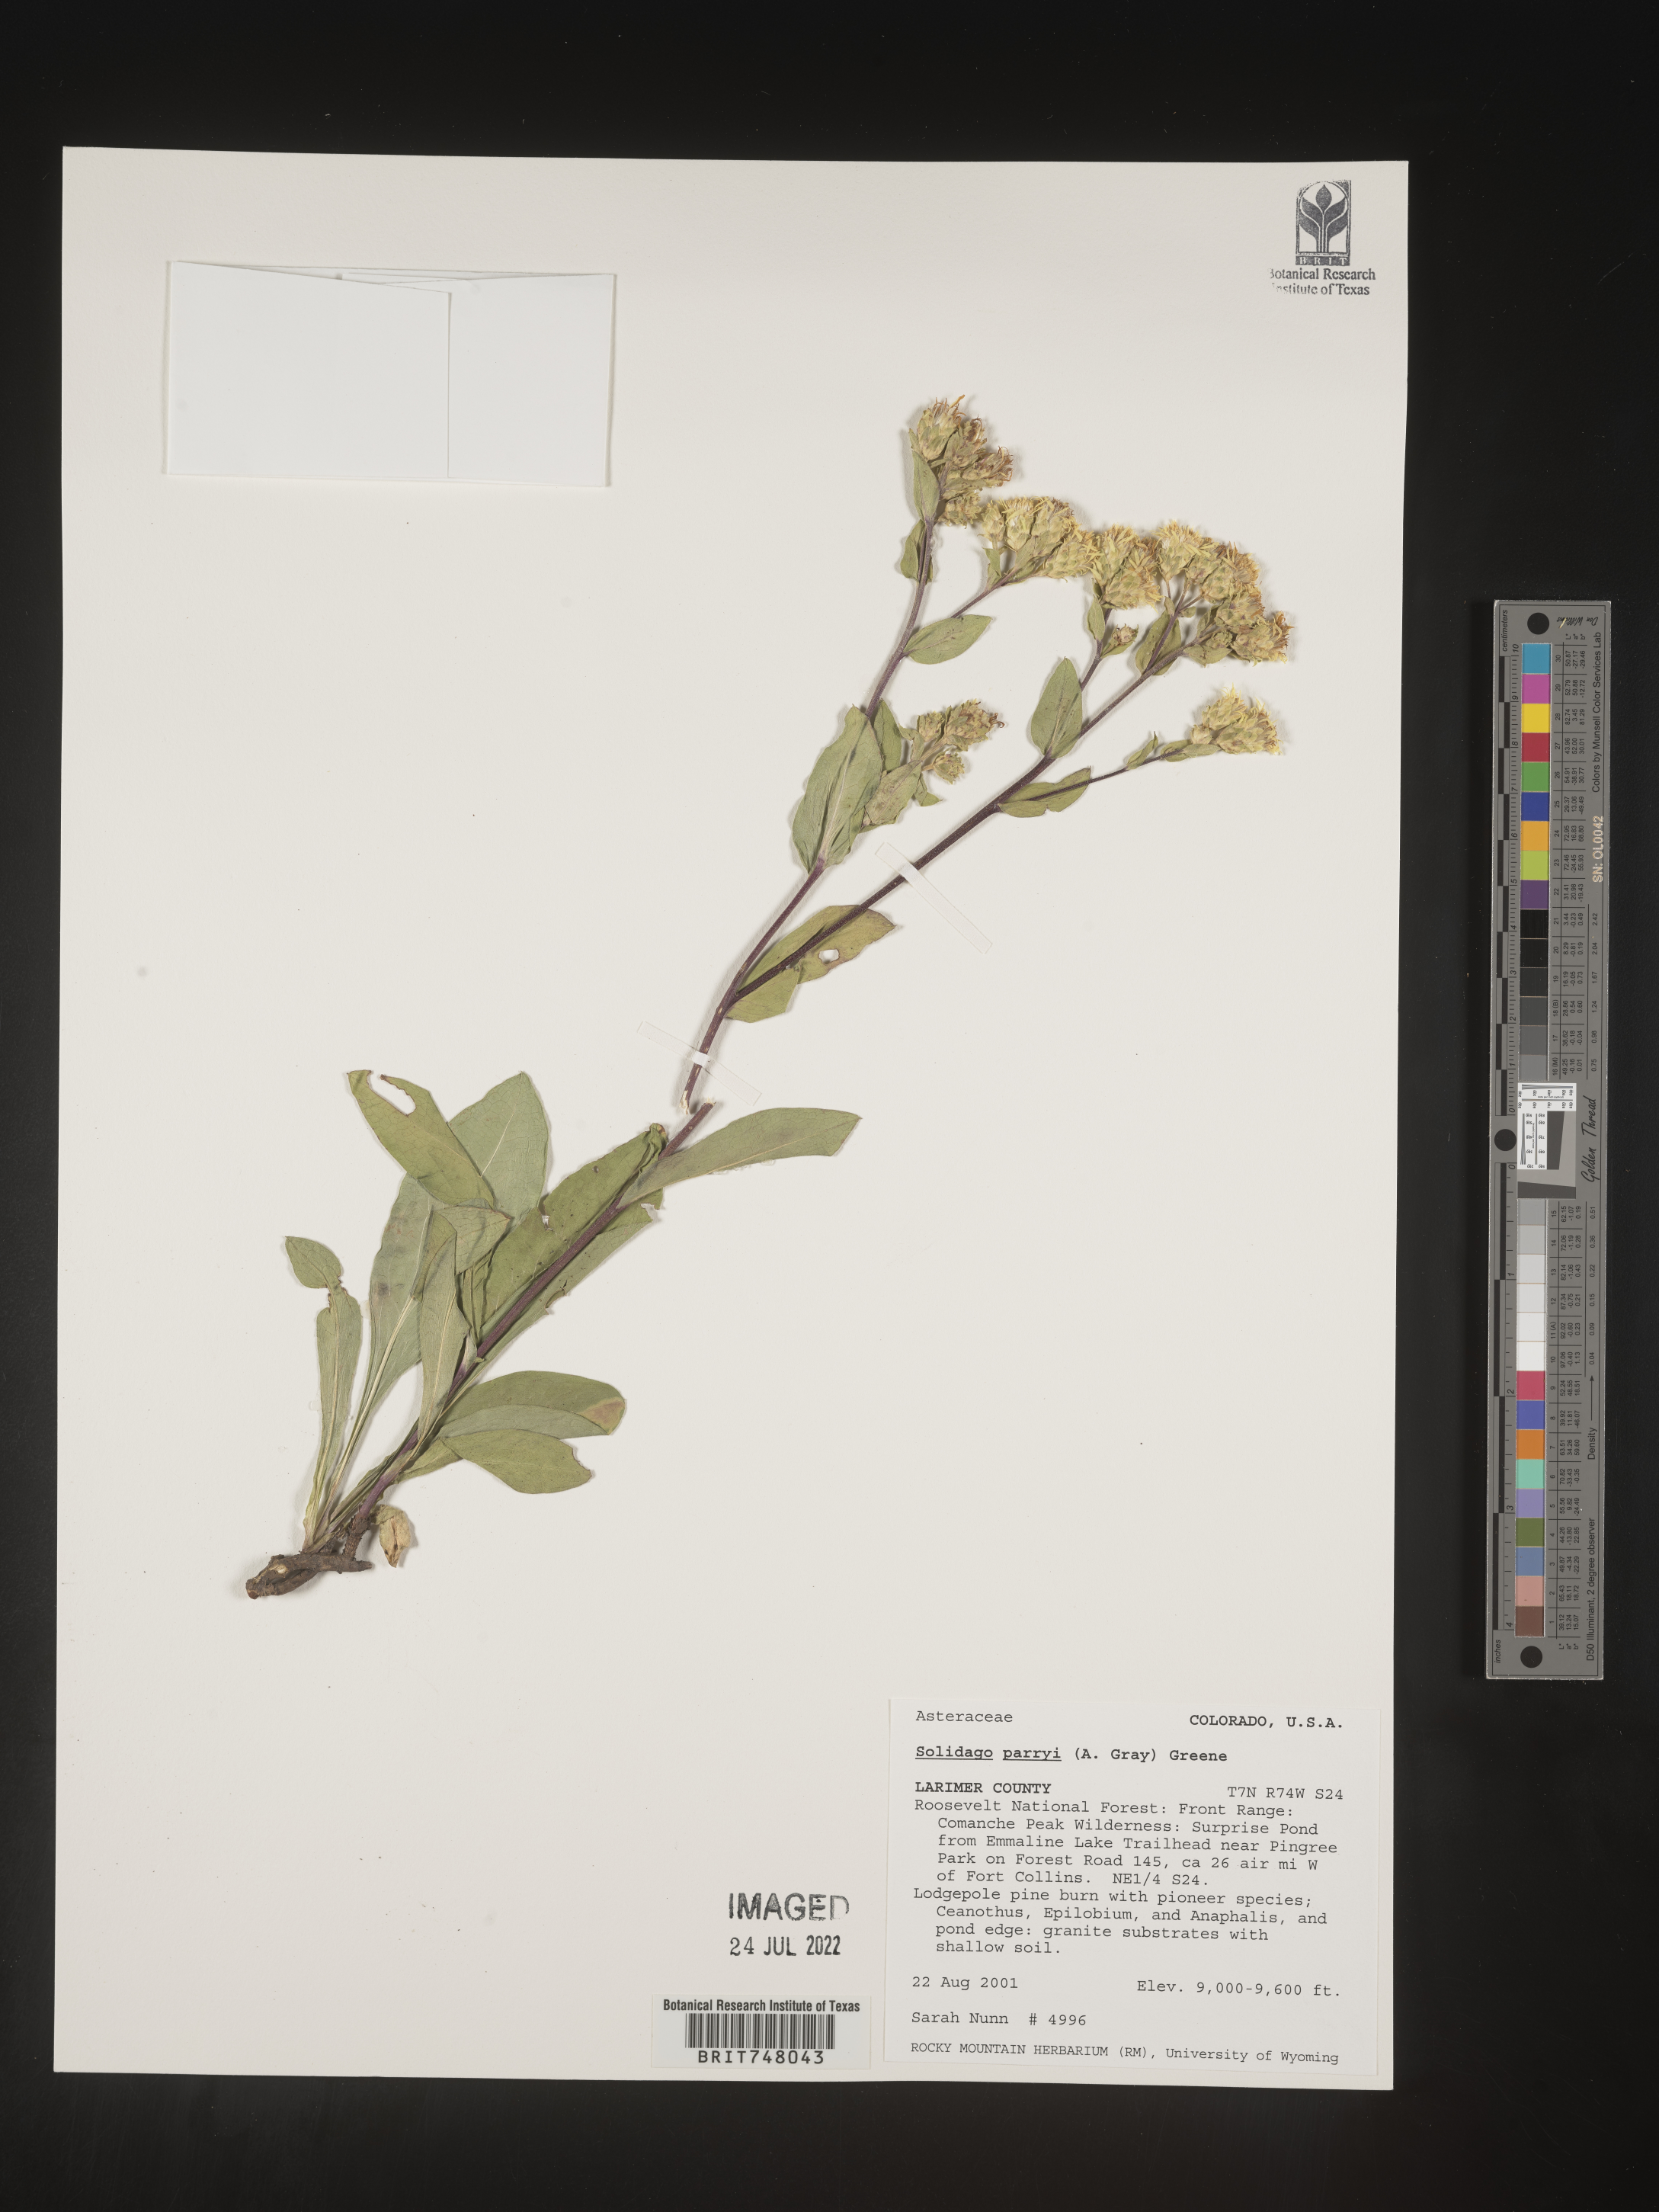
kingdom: Plantae
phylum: Tracheophyta
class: Magnoliopsida
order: Asterales
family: Asteraceae
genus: Oreochrysum
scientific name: Oreochrysum parryi
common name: Parry's goldenweed
